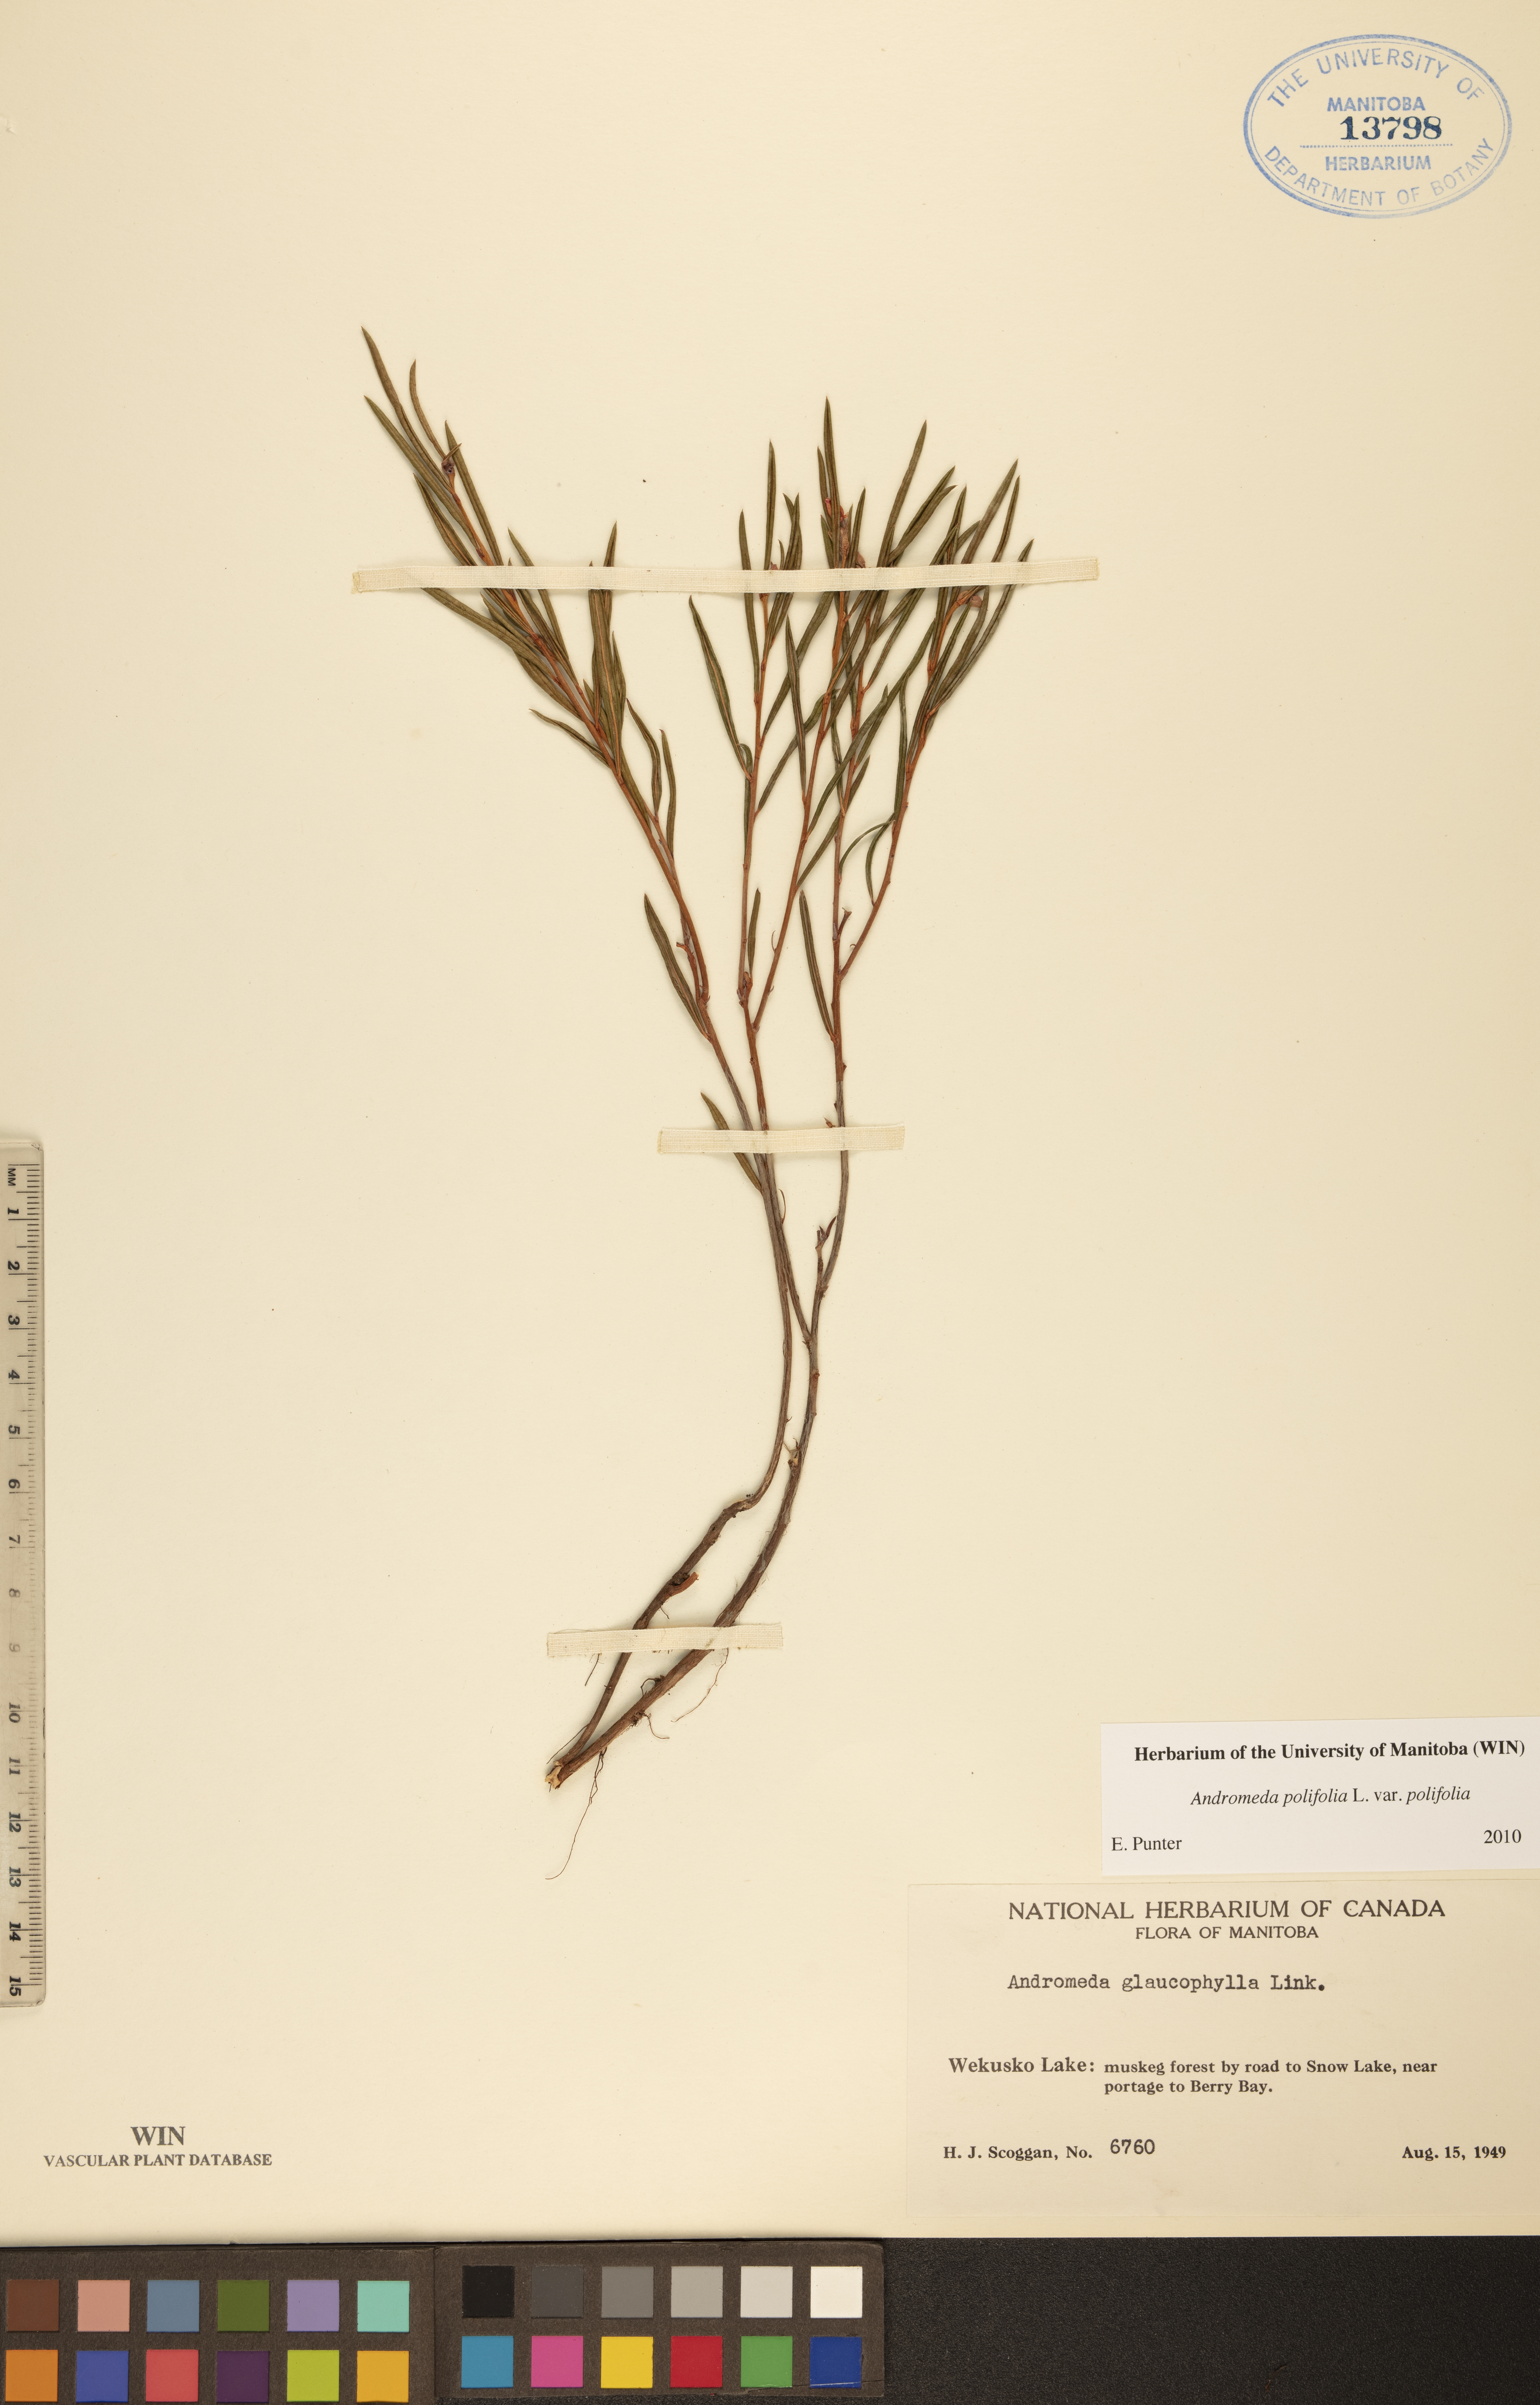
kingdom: Plantae
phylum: Tracheophyta
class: Magnoliopsida
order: Ericales
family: Ericaceae
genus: Andromeda
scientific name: Andromeda polifolia
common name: Bog-rosemary
